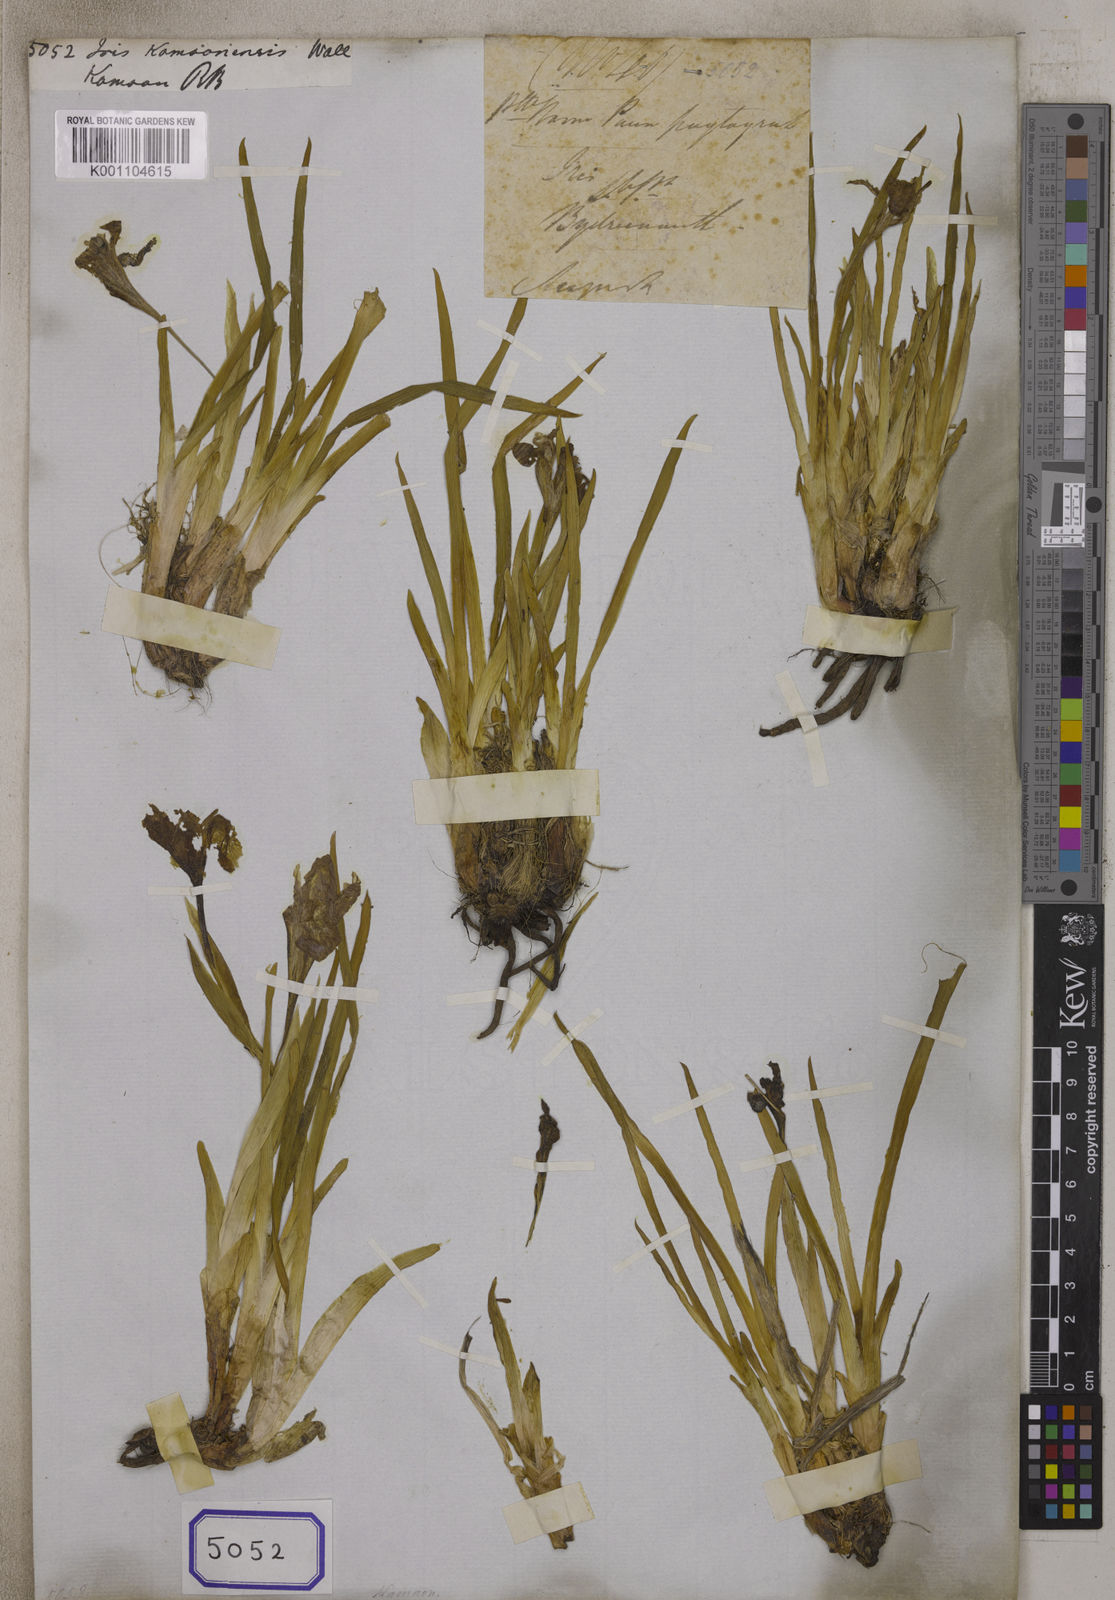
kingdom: Plantae
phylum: Tracheophyta
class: Liliopsida
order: Asparagales
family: Iridaceae
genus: Iris
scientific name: Iris kemaonensis
